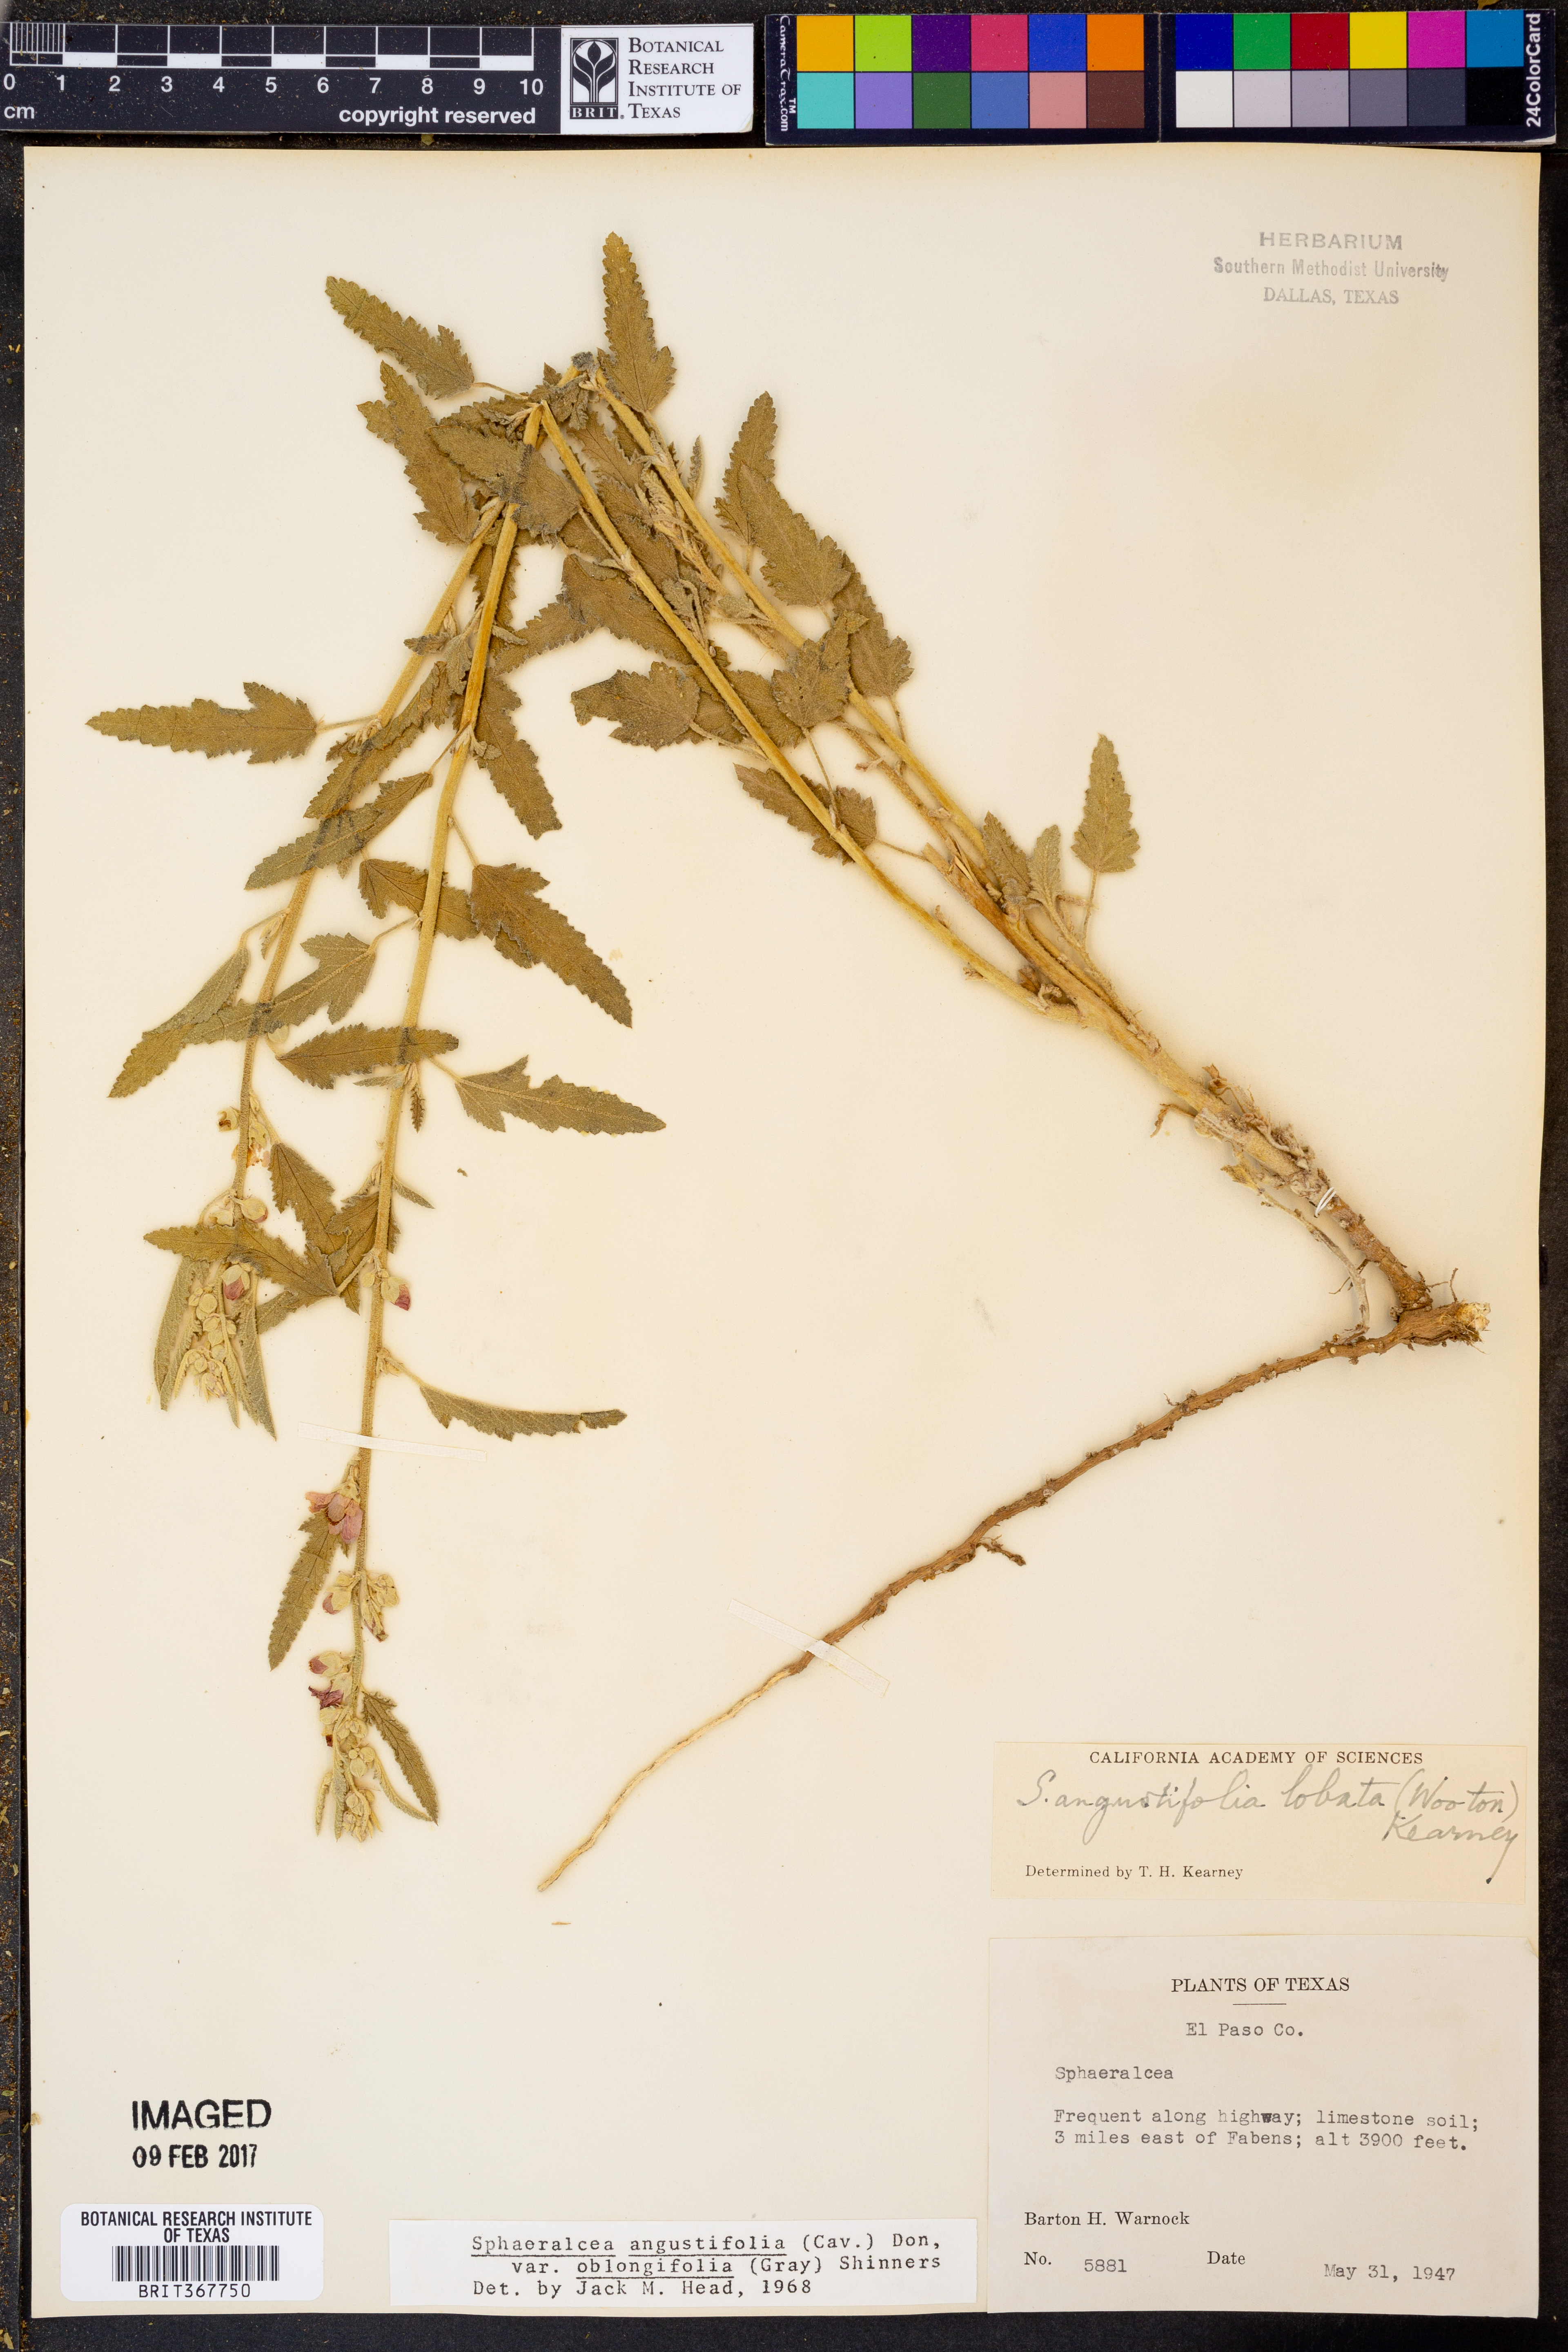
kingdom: Plantae
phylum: Tracheophyta
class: Magnoliopsida
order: Malvales
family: Malvaceae
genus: Sphaeralcea
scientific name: Sphaeralcea angustifolia
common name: Copper globe-mallow
